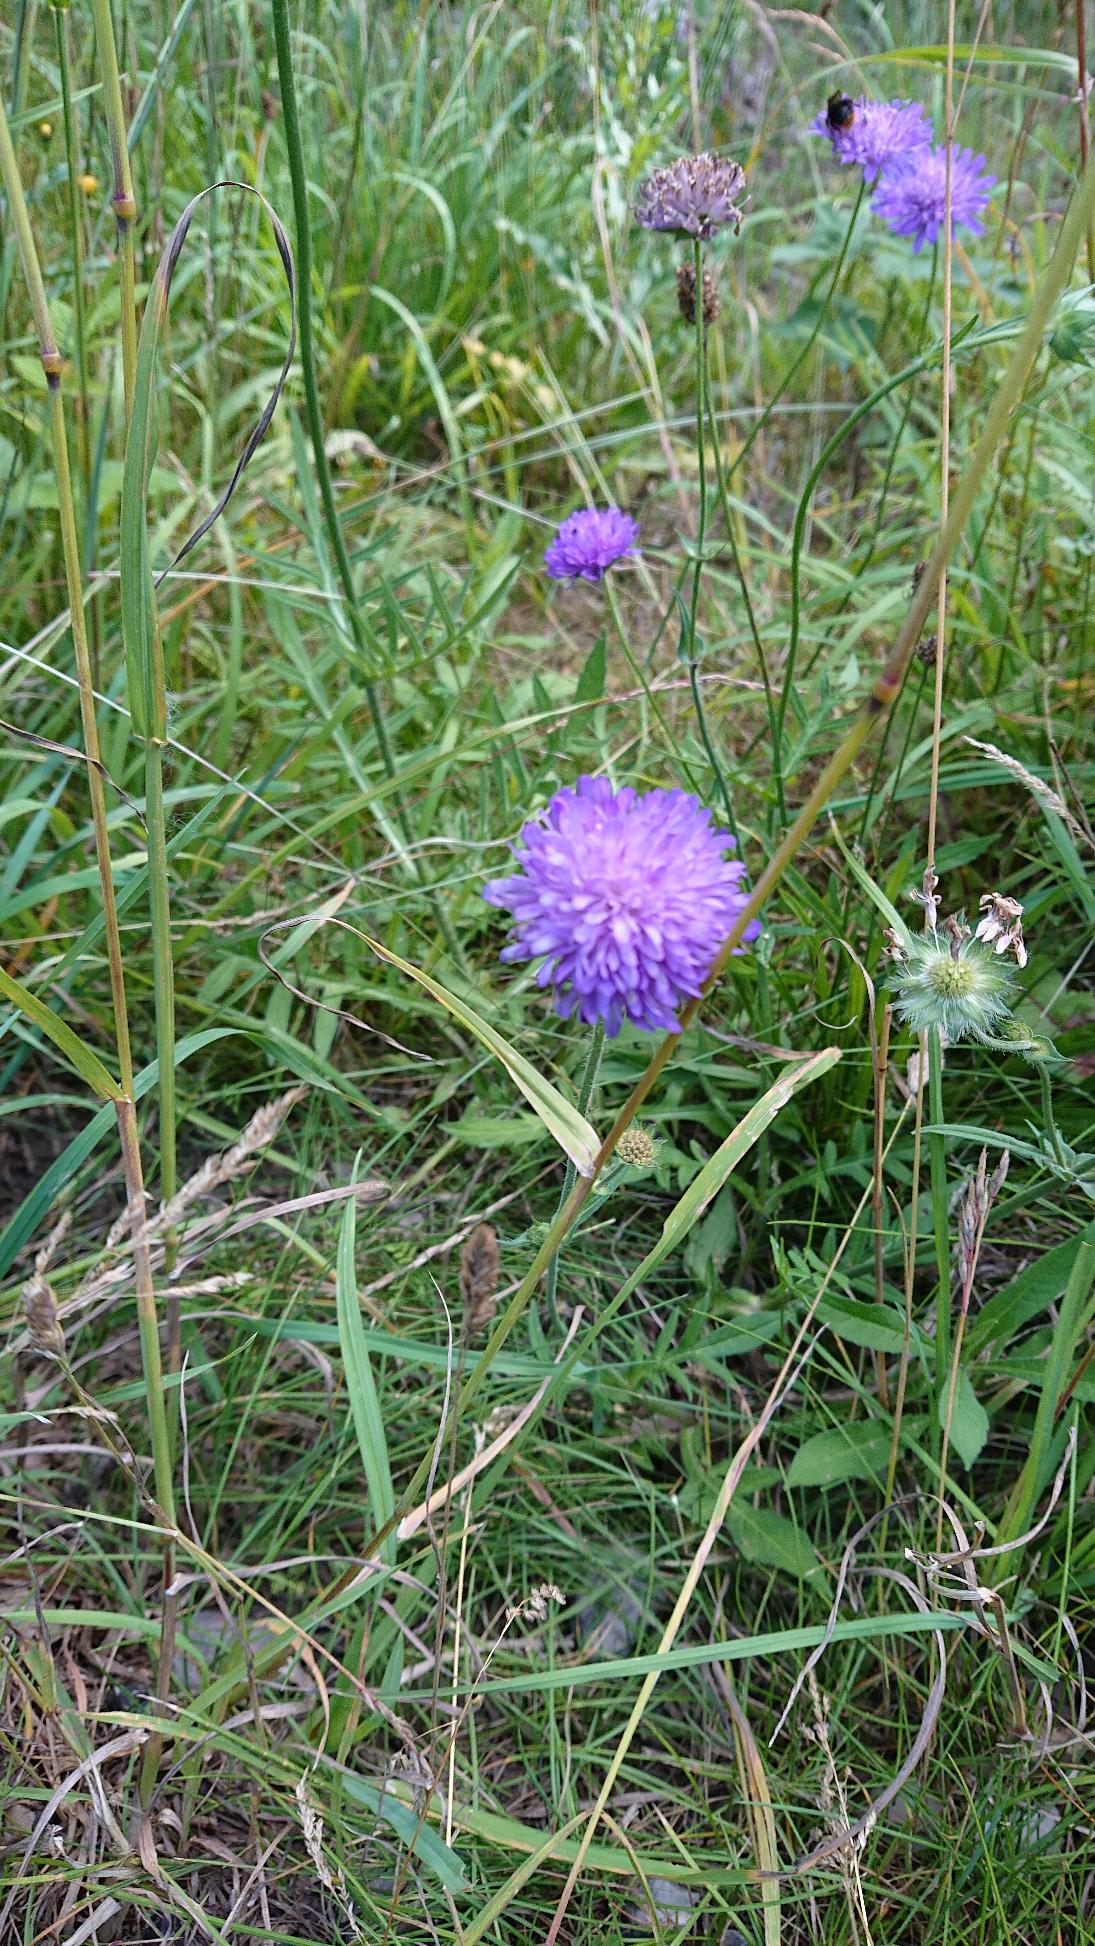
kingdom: Plantae
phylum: Tracheophyta
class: Magnoliopsida
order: Dipsacales
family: Caprifoliaceae
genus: Knautia
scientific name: Knautia arvensis
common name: Blåhat
